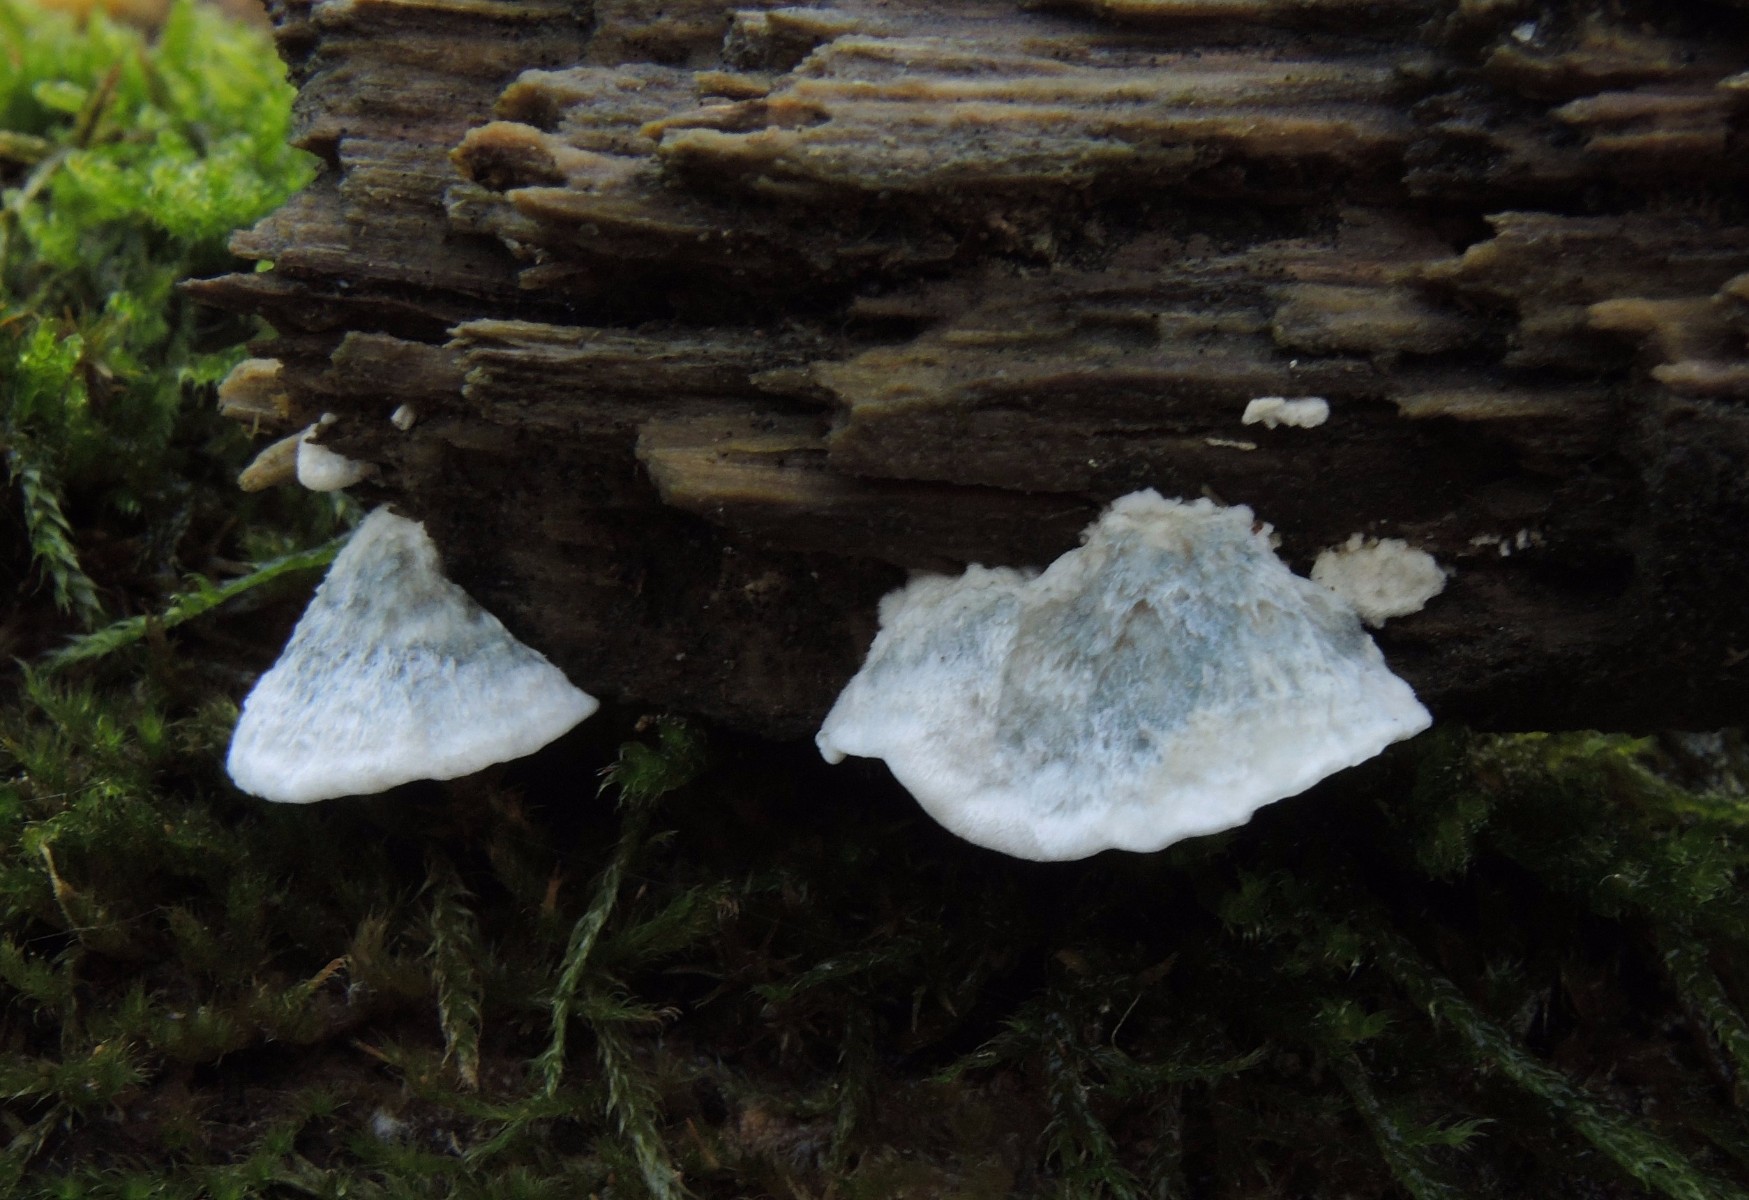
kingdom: Fungi
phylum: Basidiomycota
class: Agaricomycetes
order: Polyporales
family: Polyporaceae
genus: Cyanosporus
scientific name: Cyanosporus alni
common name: blegblå kødporesvamp
